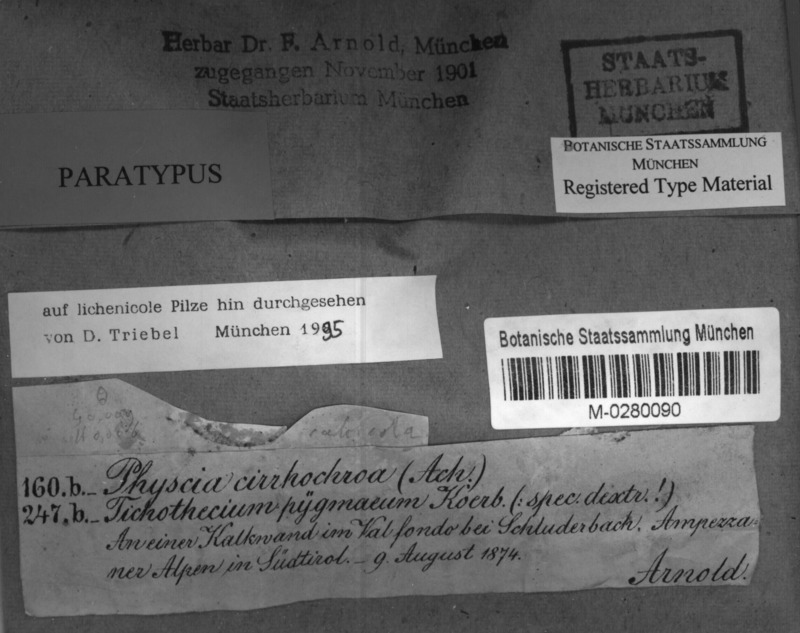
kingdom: Fungi
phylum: Ascomycota
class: Lecanoromycetes
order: Teloschistales
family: Teloschistaceae
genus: Leproplaca
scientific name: Leproplaca proteus
